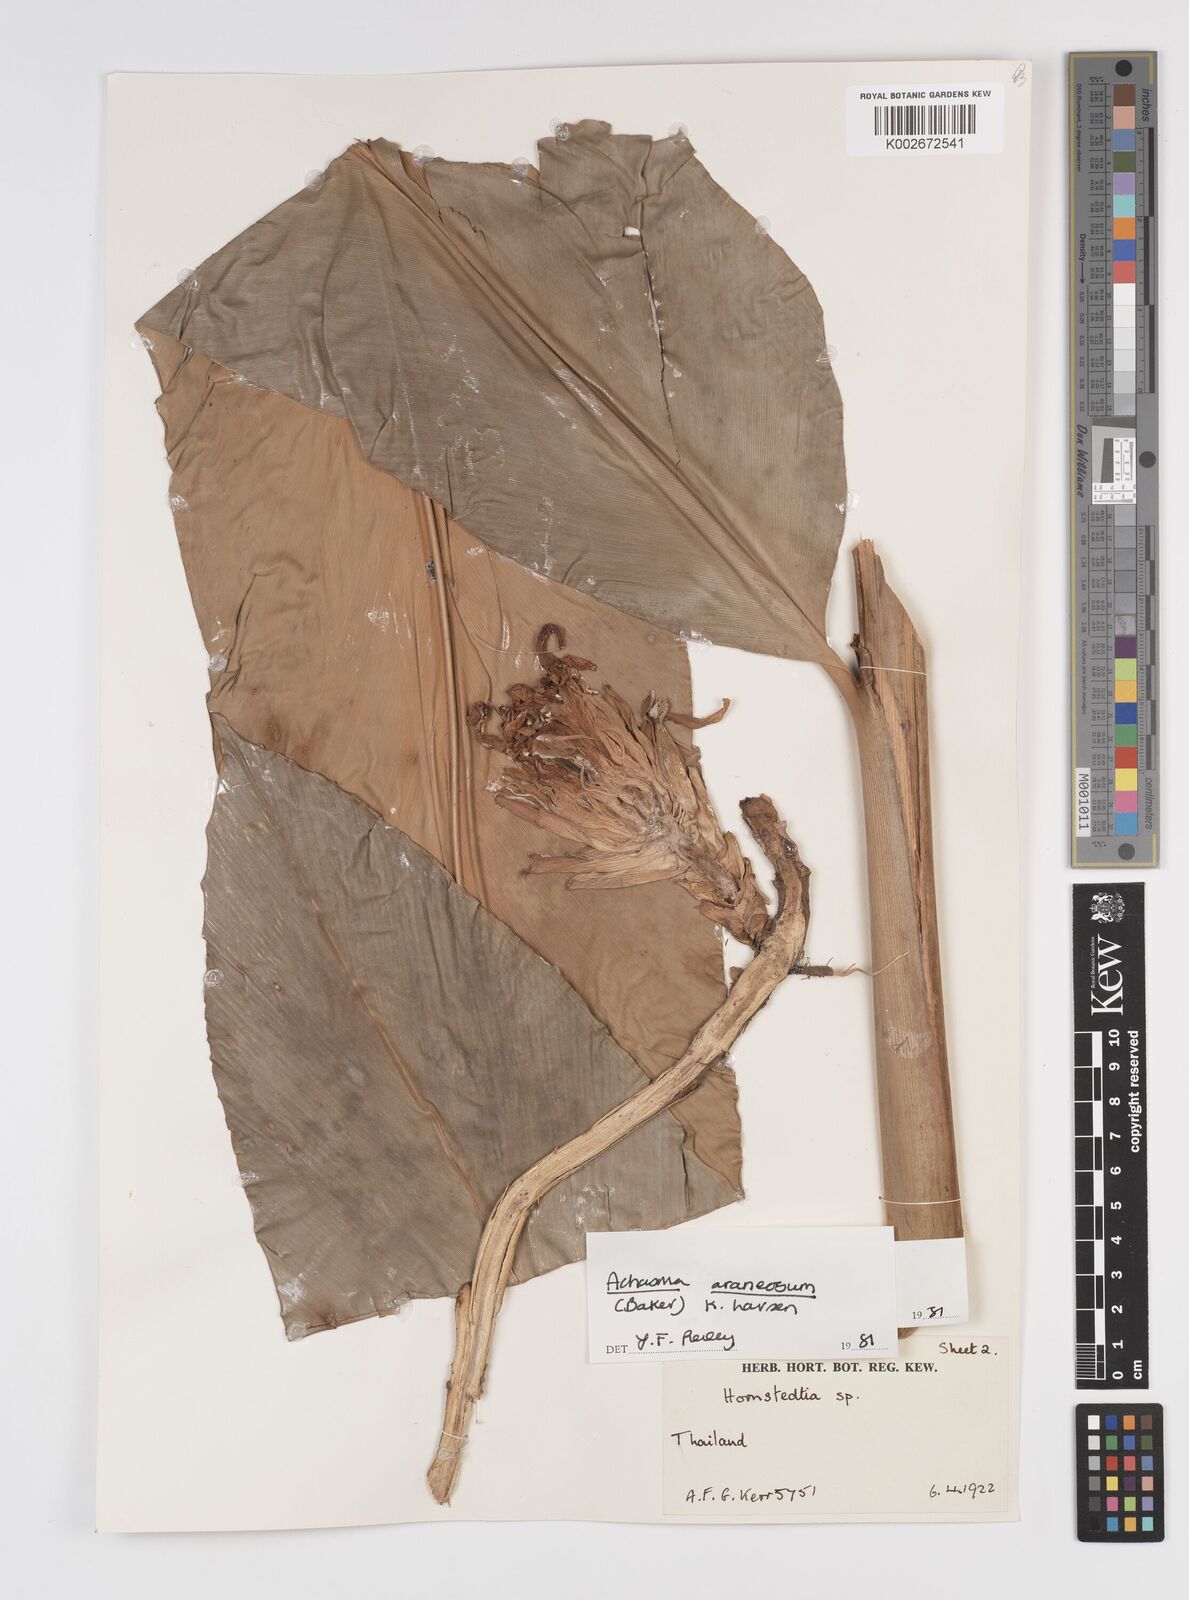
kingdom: Plantae
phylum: Tracheophyta
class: Liliopsida
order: Zingiberales
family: Zingiberaceae
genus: Etlingera
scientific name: Etlingera araneosa
